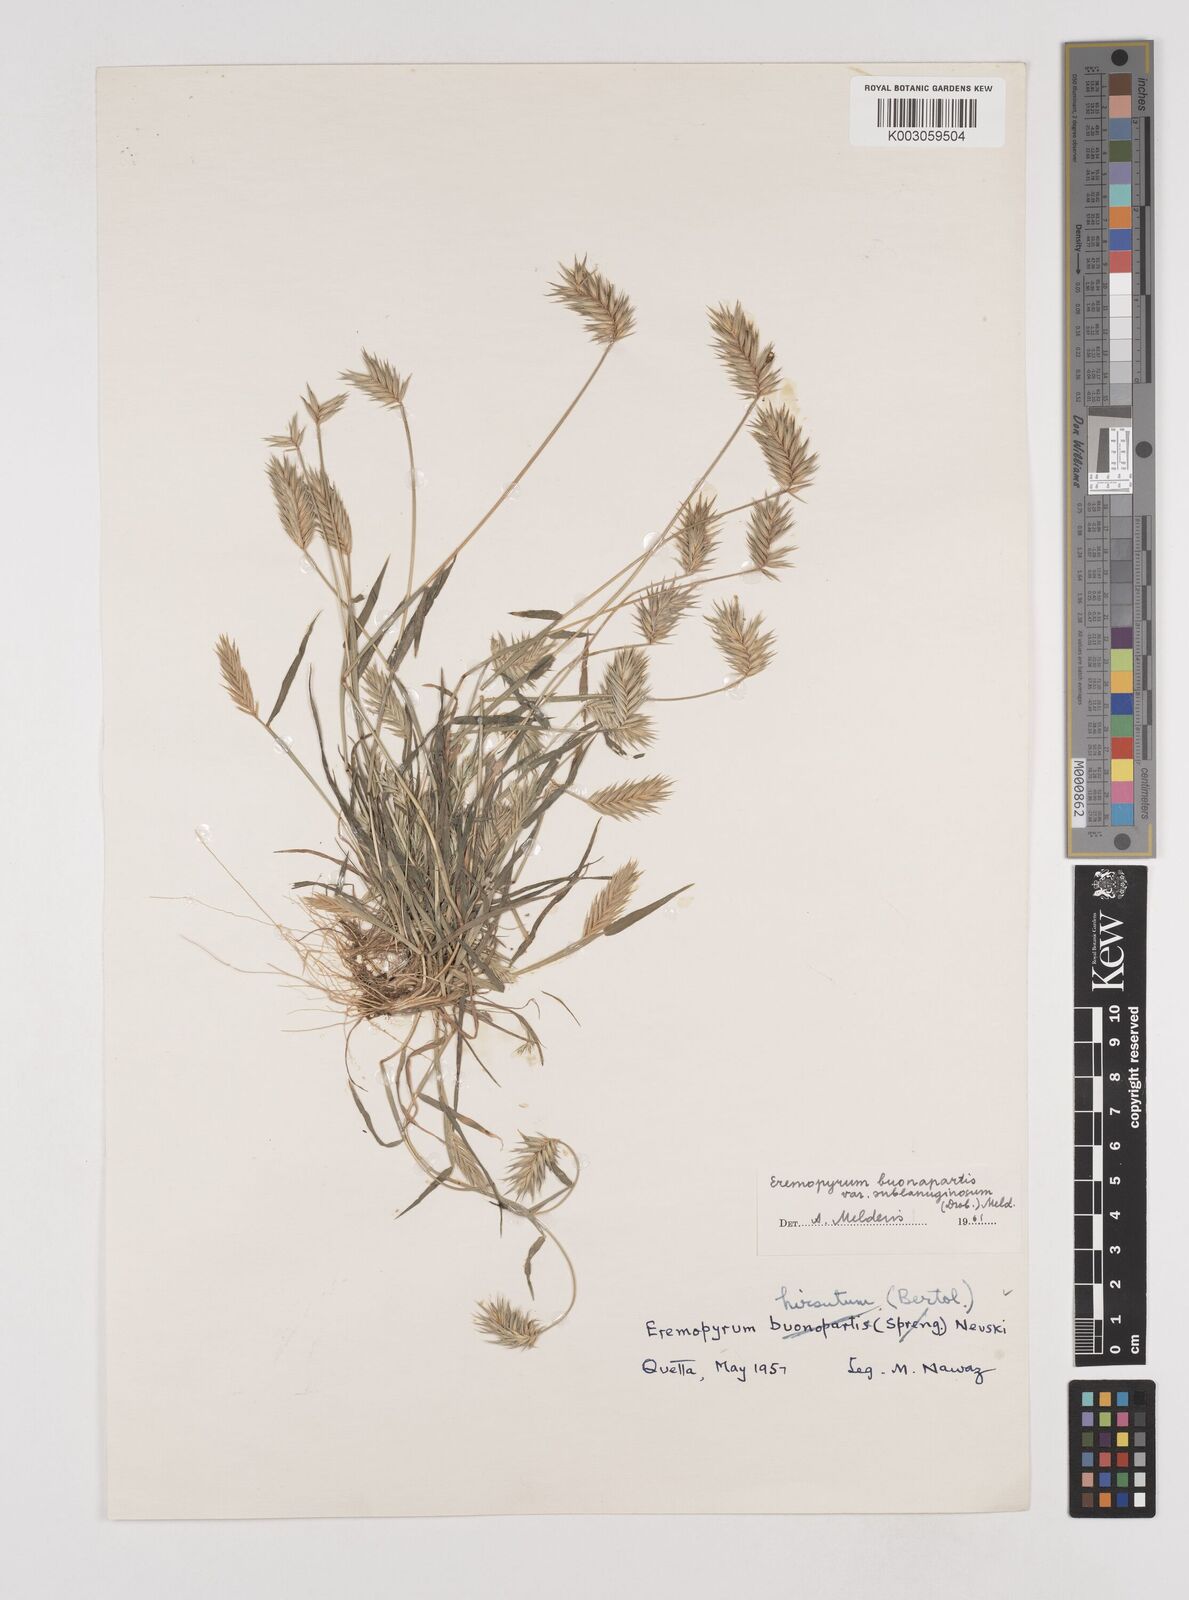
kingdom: Plantae
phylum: Tracheophyta
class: Liliopsida
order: Poales
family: Poaceae
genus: Eremopyrum
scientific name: Eremopyrum bonaepartis
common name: Tapertip false wheatgrass
